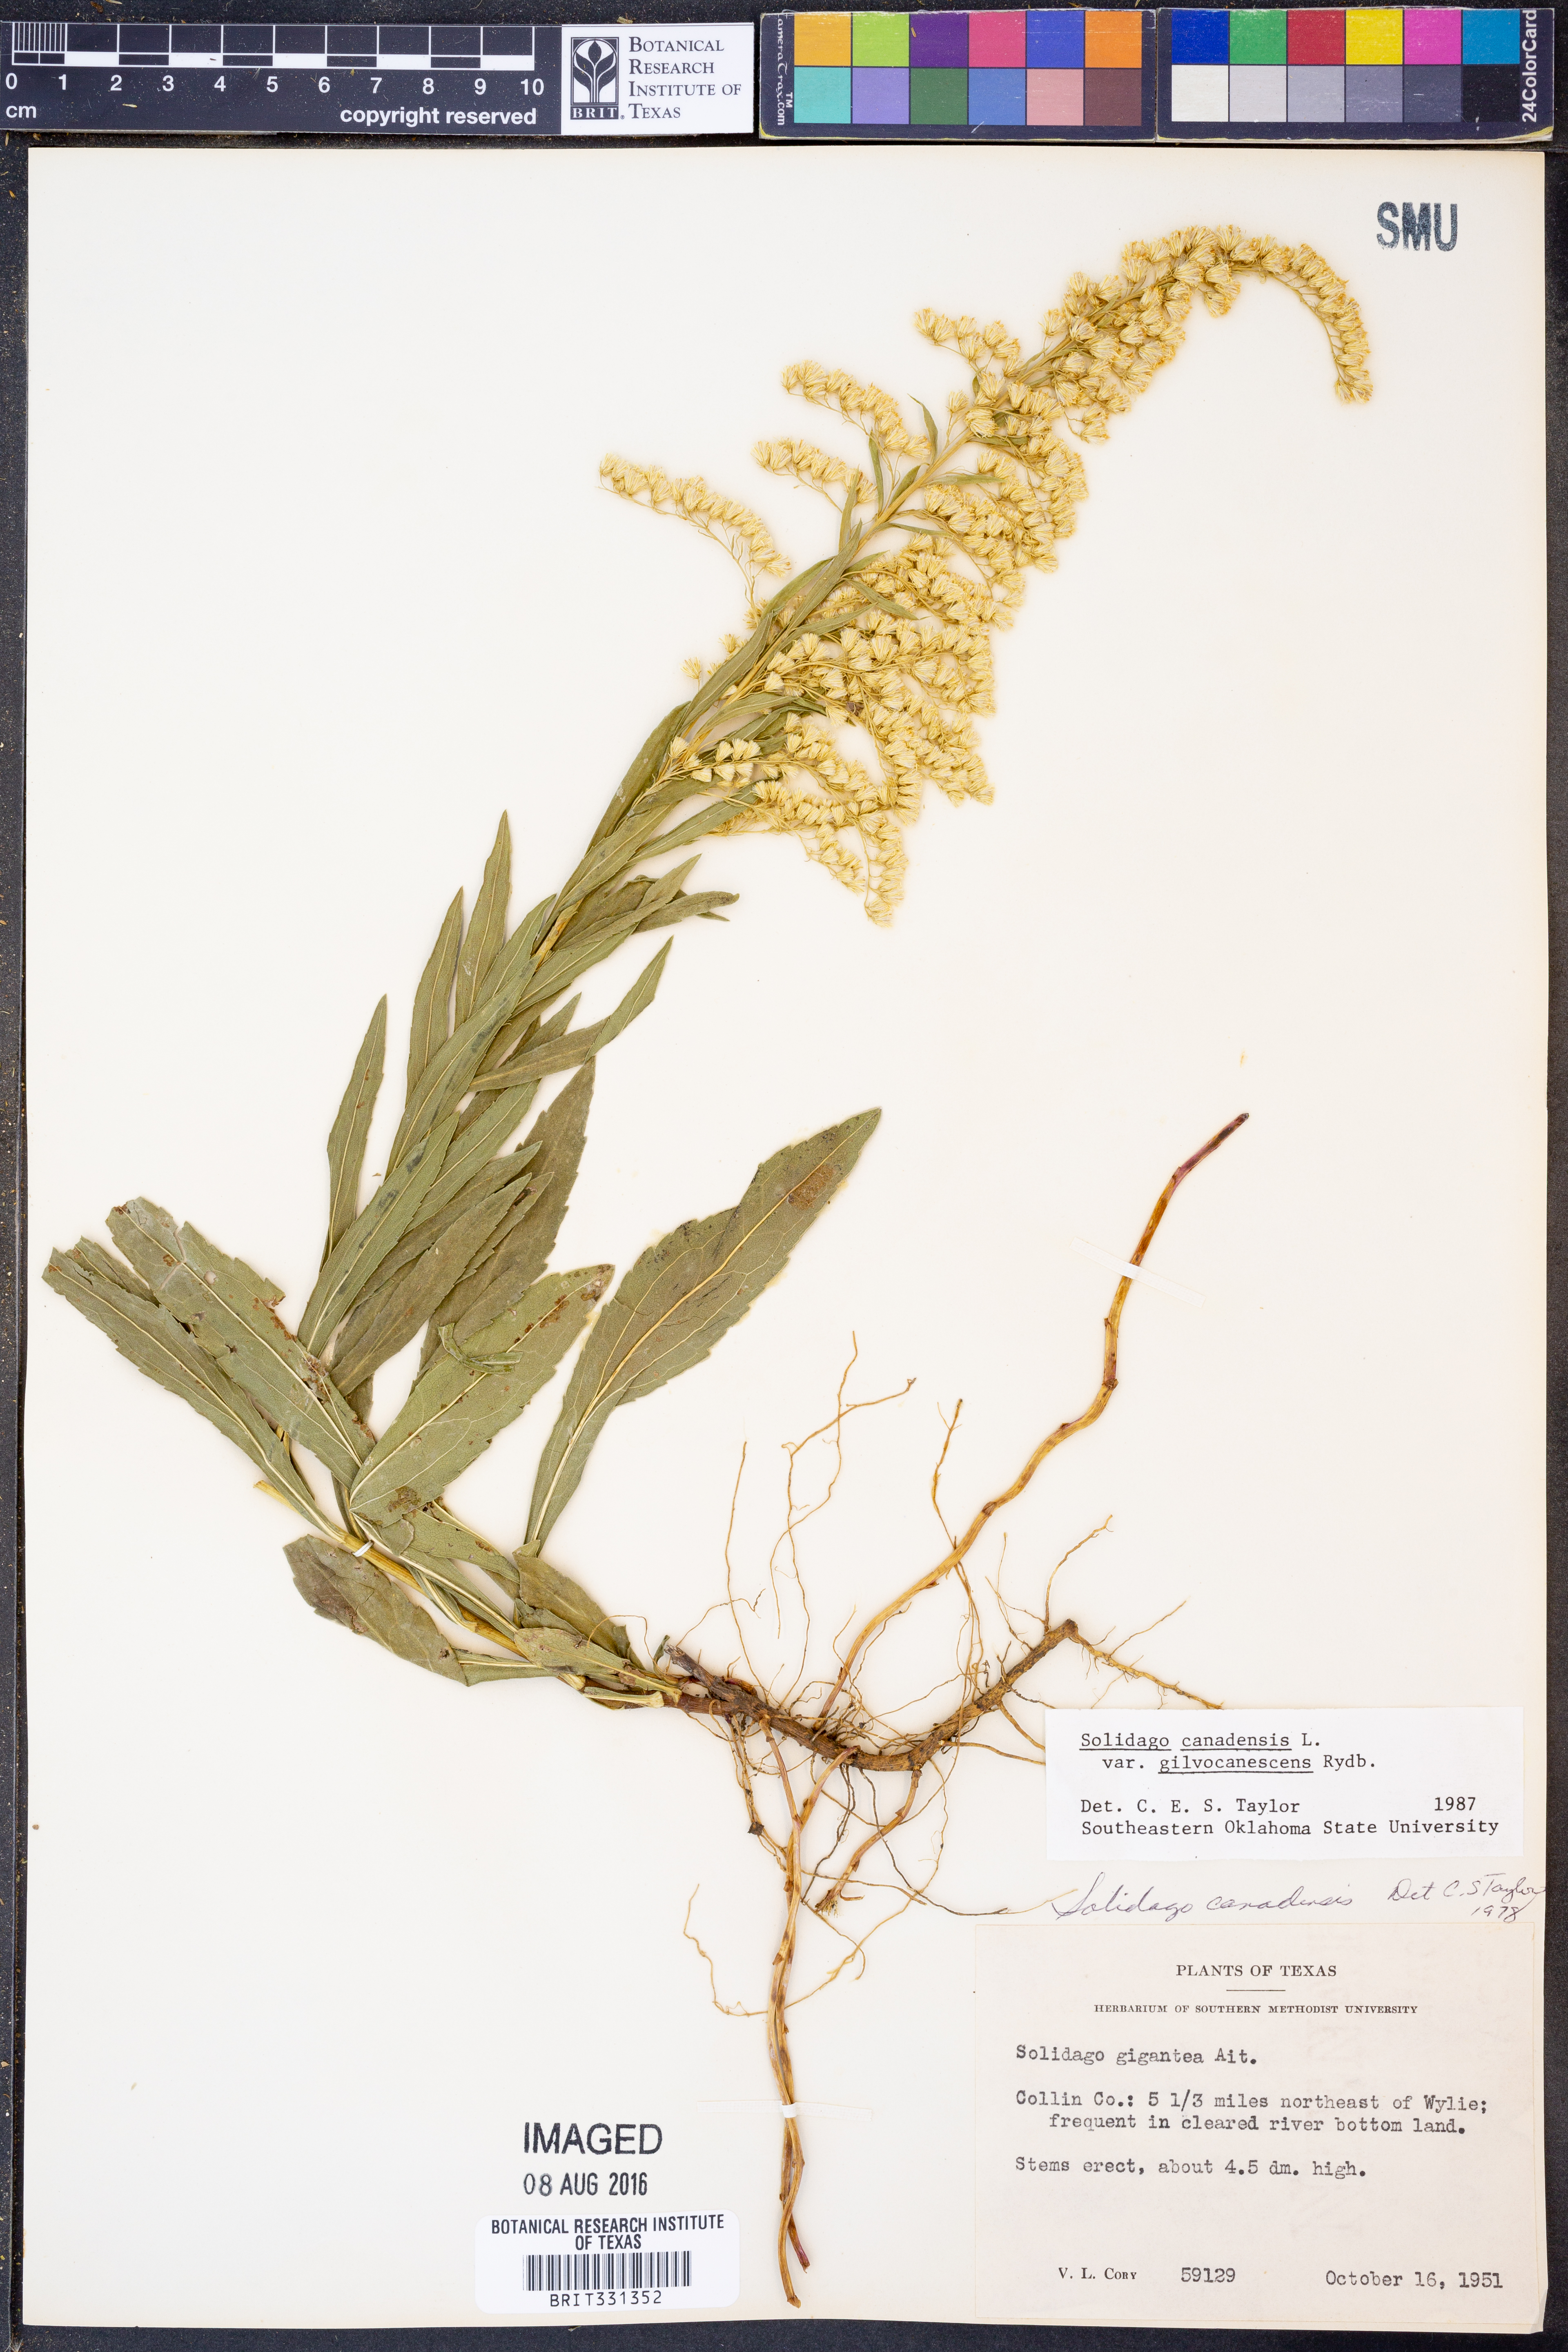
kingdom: Plantae
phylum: Tracheophyta
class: Magnoliopsida
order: Asterales
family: Asteraceae
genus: Solidago
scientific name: Solidago altissima
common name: Late goldenrod
